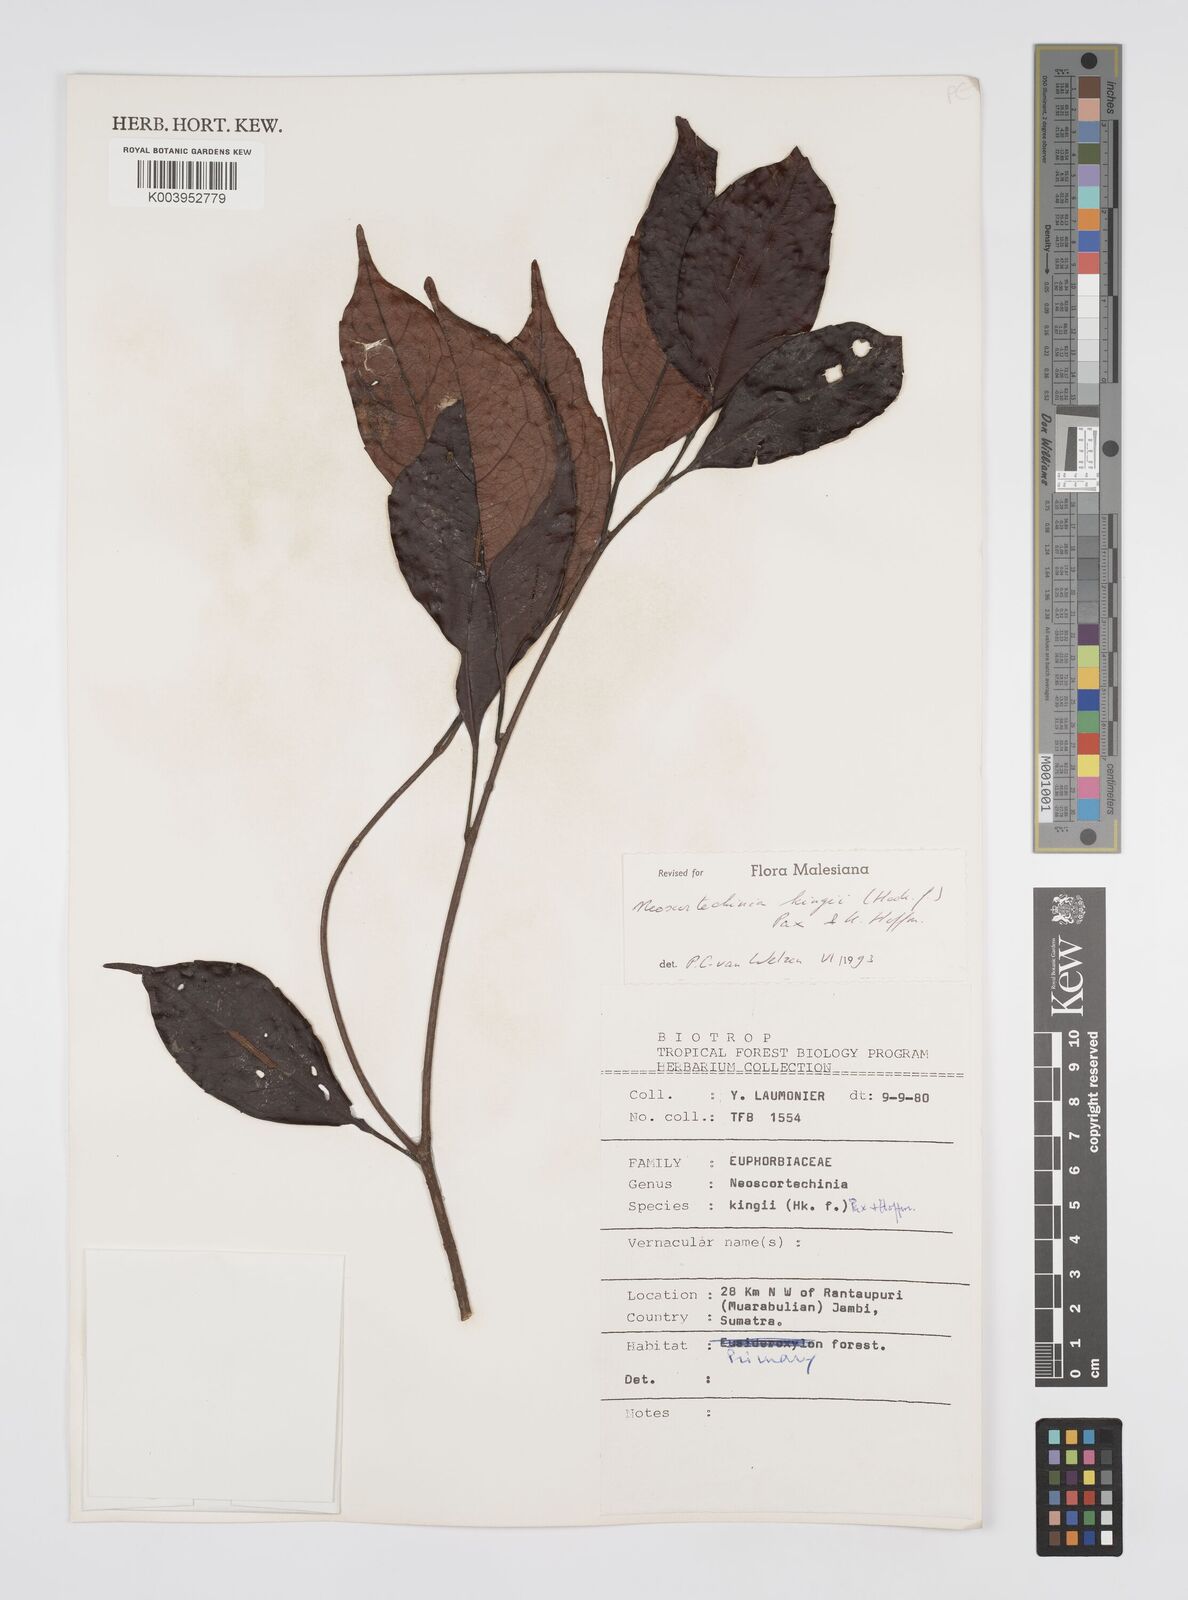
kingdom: Plantae
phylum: Tracheophyta
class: Magnoliopsida
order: Malpighiales
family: Euphorbiaceae
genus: Neoscortechinia
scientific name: Neoscortechinia kingii
